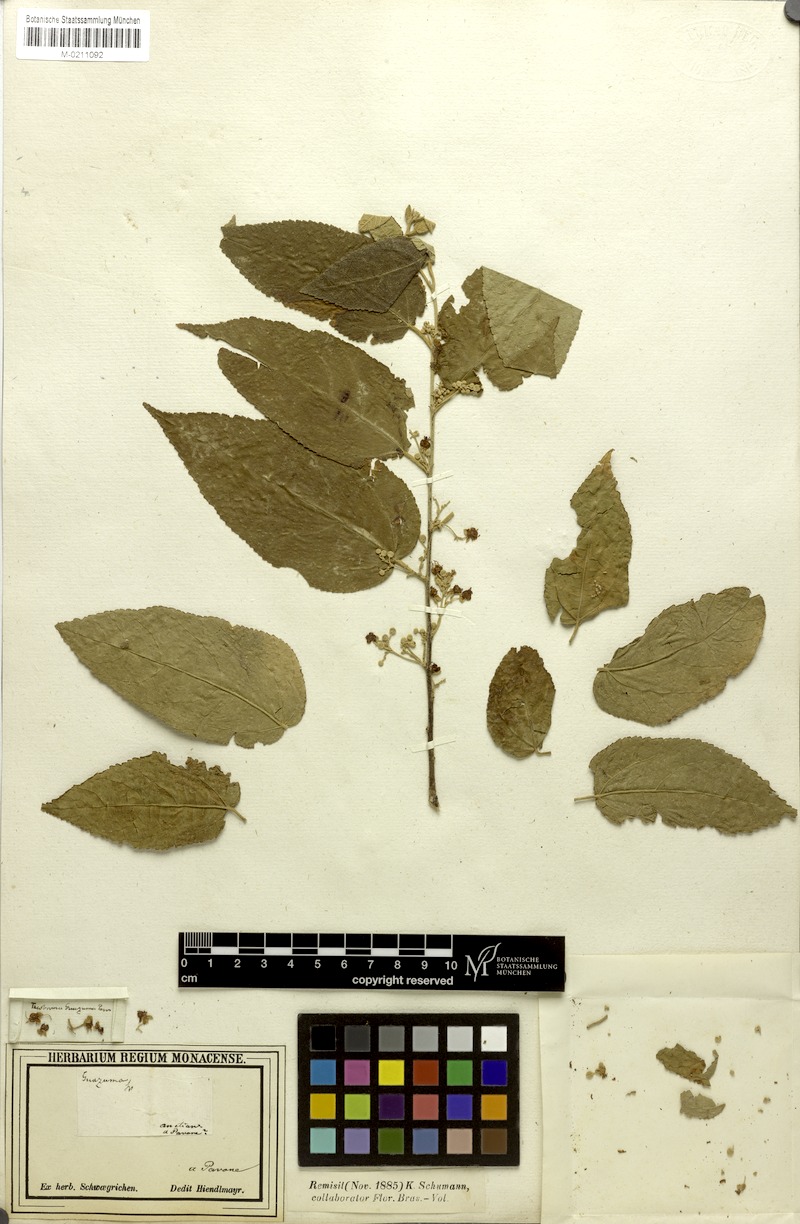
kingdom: Plantae
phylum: Tracheophyta
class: Magnoliopsida
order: Malvales
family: Malvaceae
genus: Guazuma
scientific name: Guazuma ulmifolia
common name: Bastard-cedar
